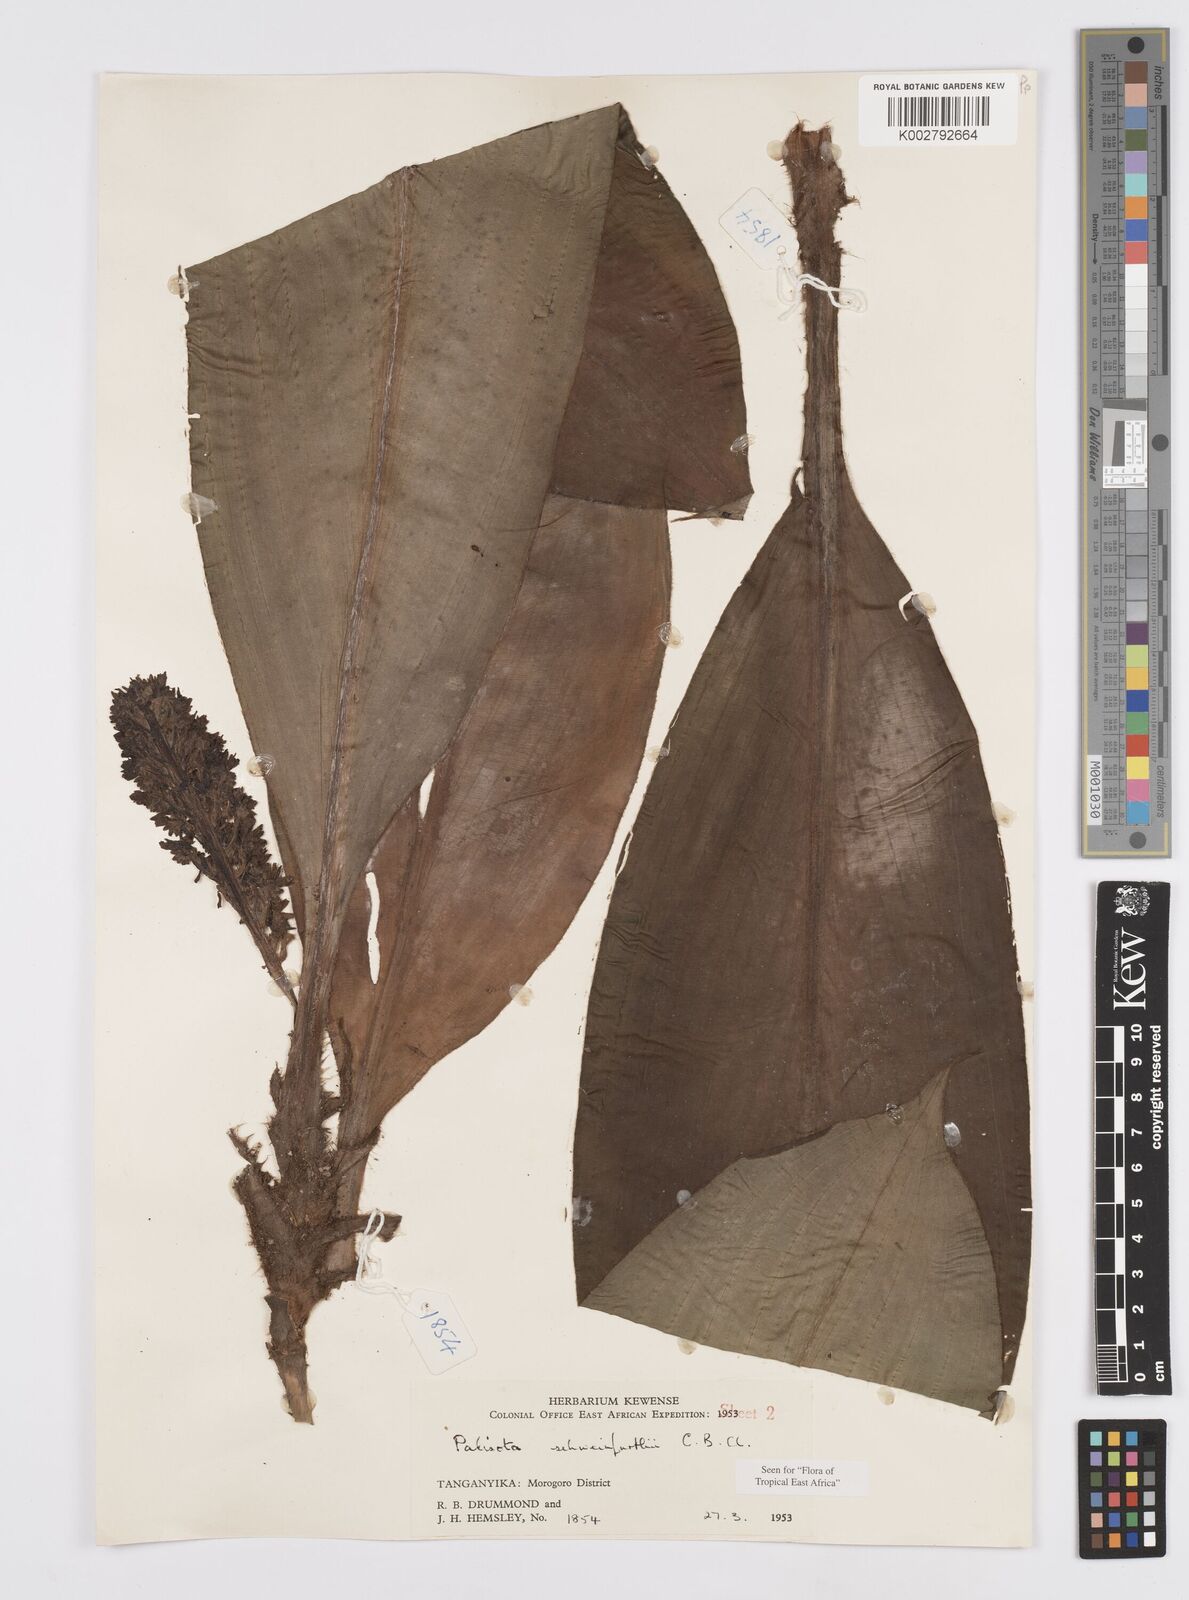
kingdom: Plantae
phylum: Tracheophyta
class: Liliopsida
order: Commelinales
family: Commelinaceae
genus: Palisota
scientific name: Palisota schweinfurthii
